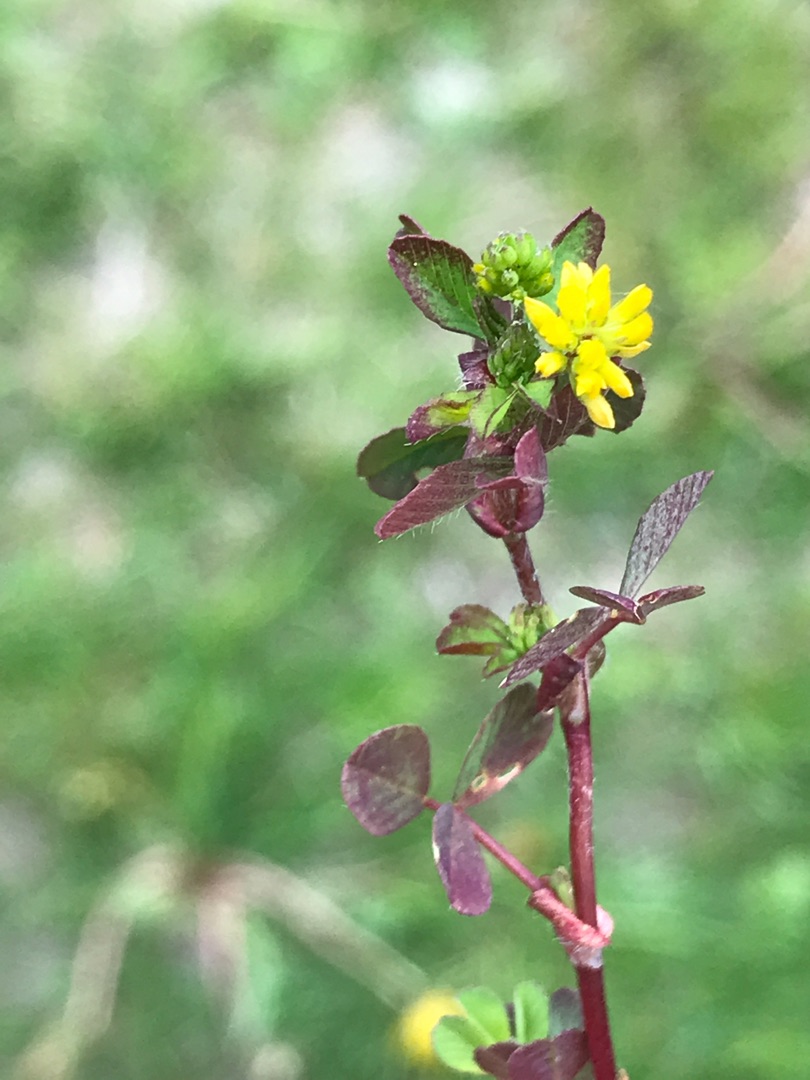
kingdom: Plantae
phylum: Tracheophyta
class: Magnoliopsida
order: Fabales
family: Fabaceae
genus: Trifolium
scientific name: Trifolium
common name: Kløverslægten
